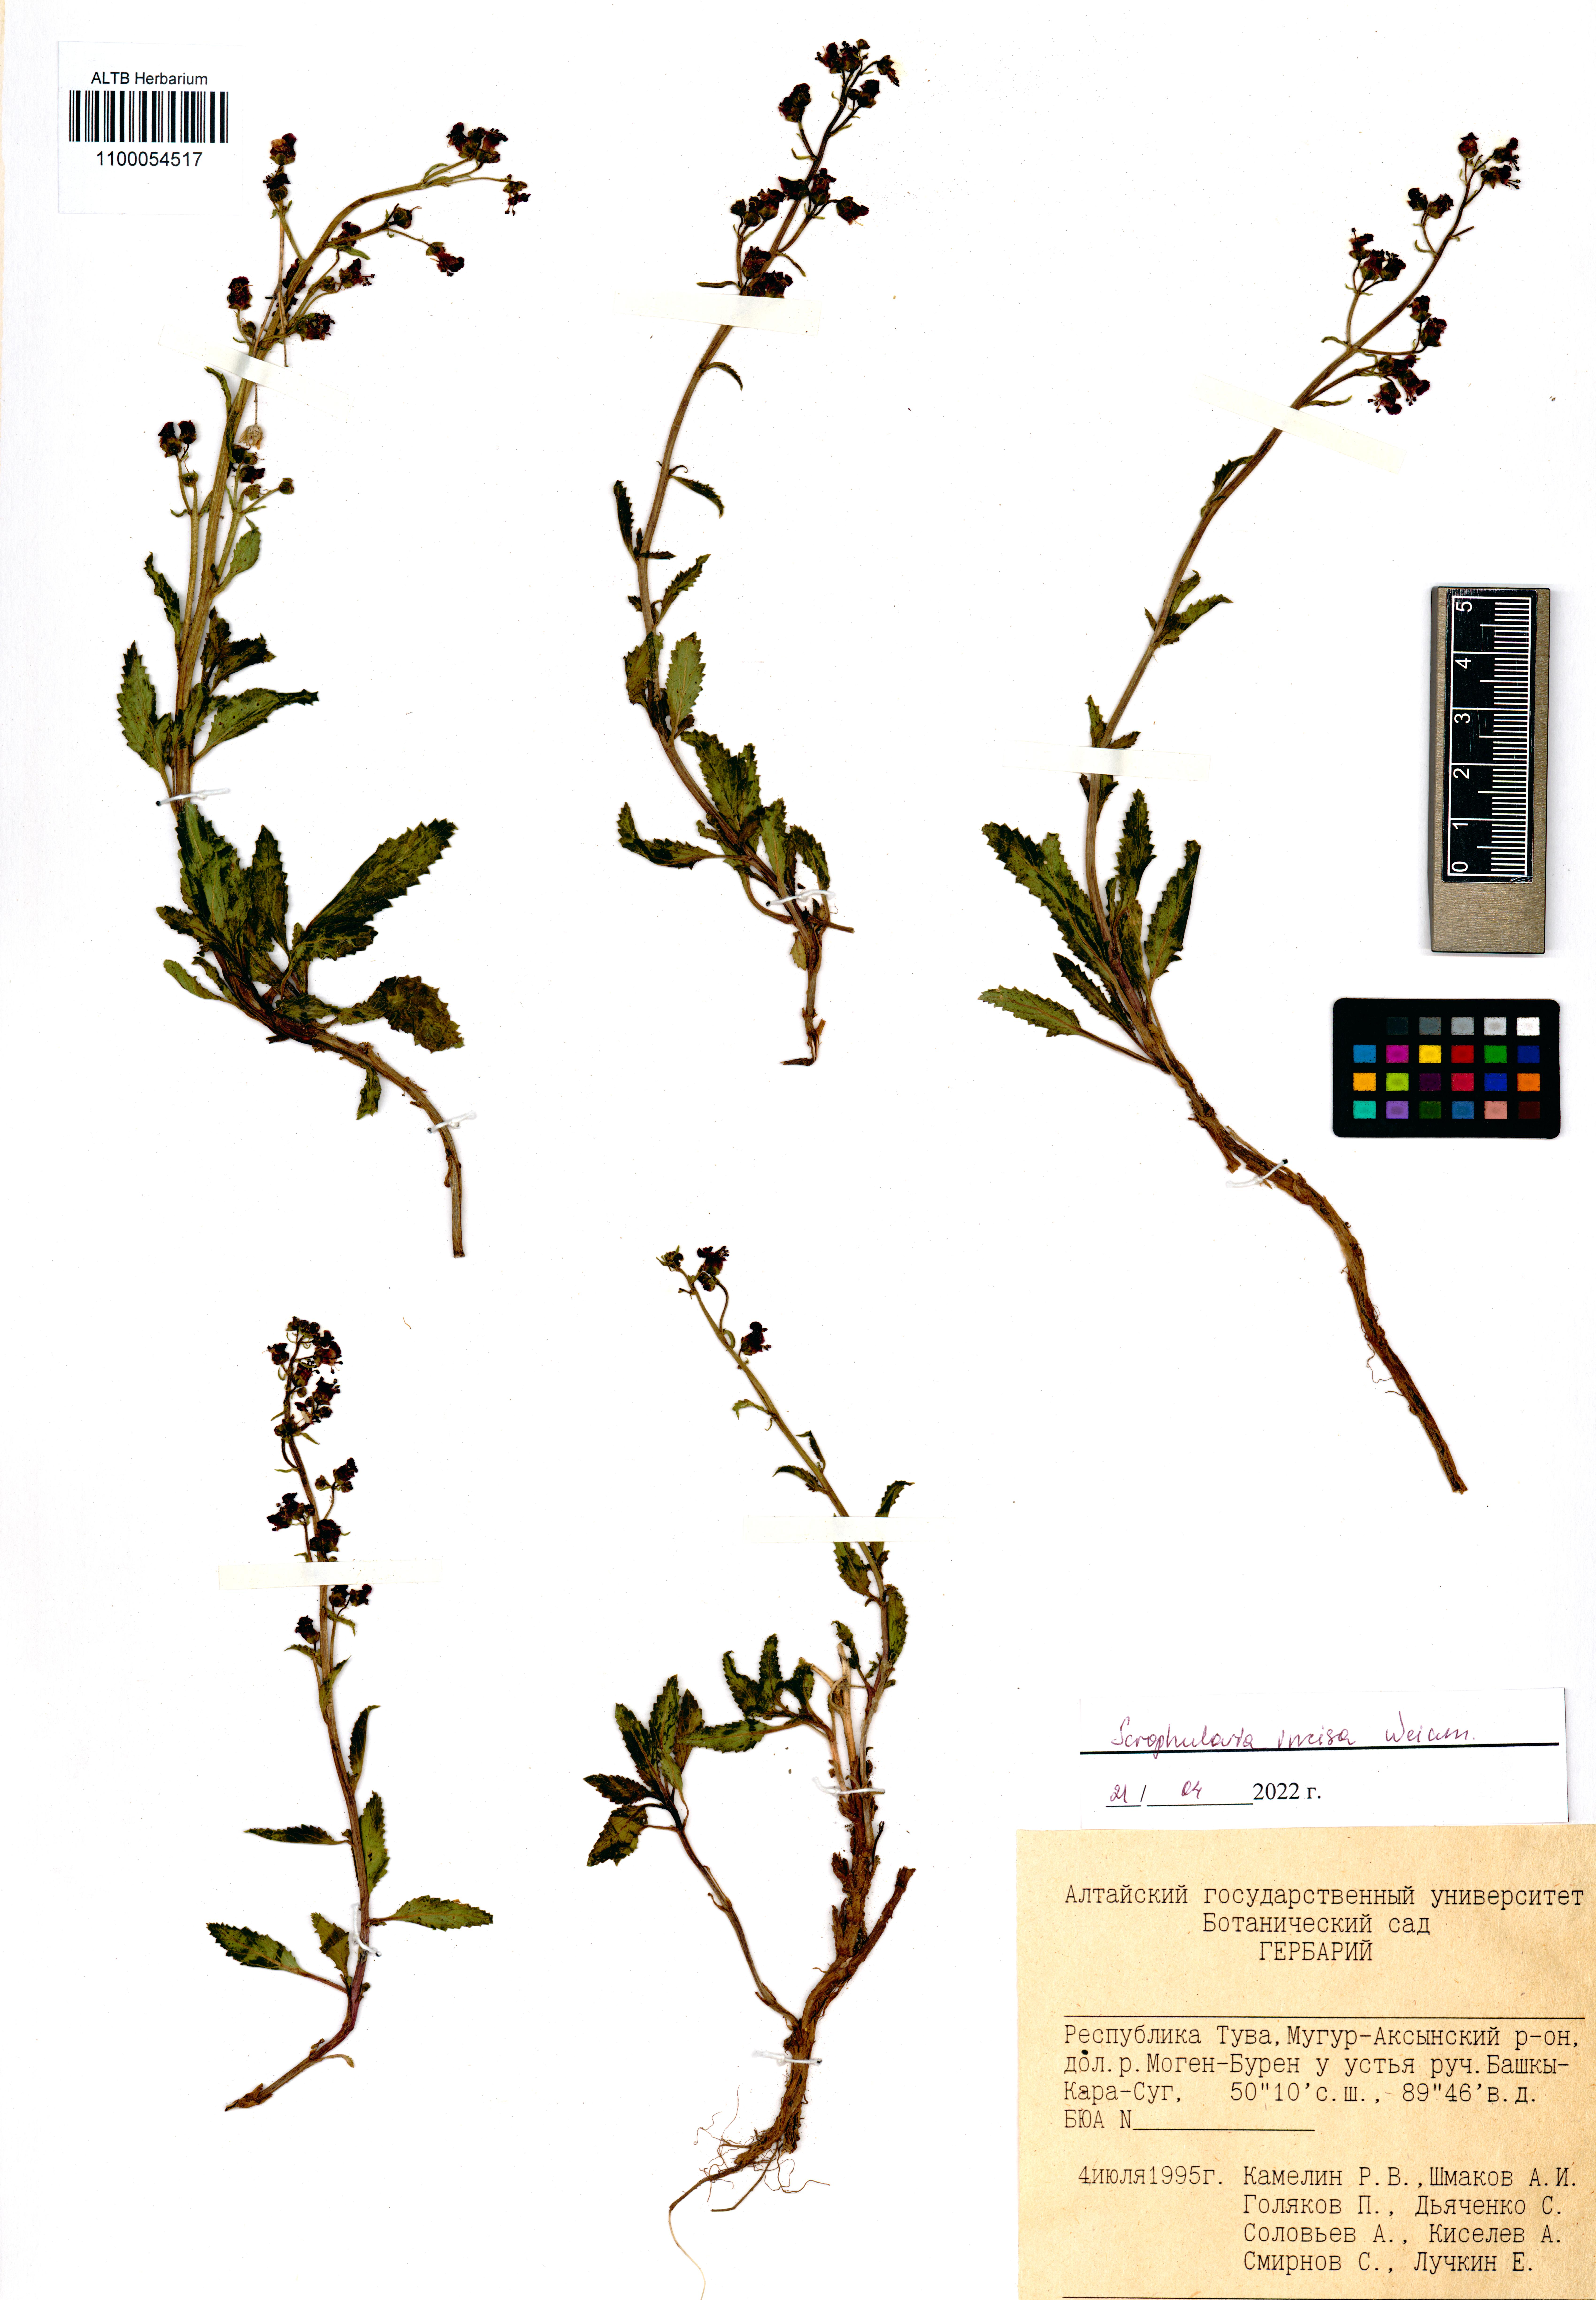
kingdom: Plantae
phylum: Tracheophyta
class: Magnoliopsida
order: Lamiales
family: Scrophulariaceae
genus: Scrophularia
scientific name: Scrophularia incisa
